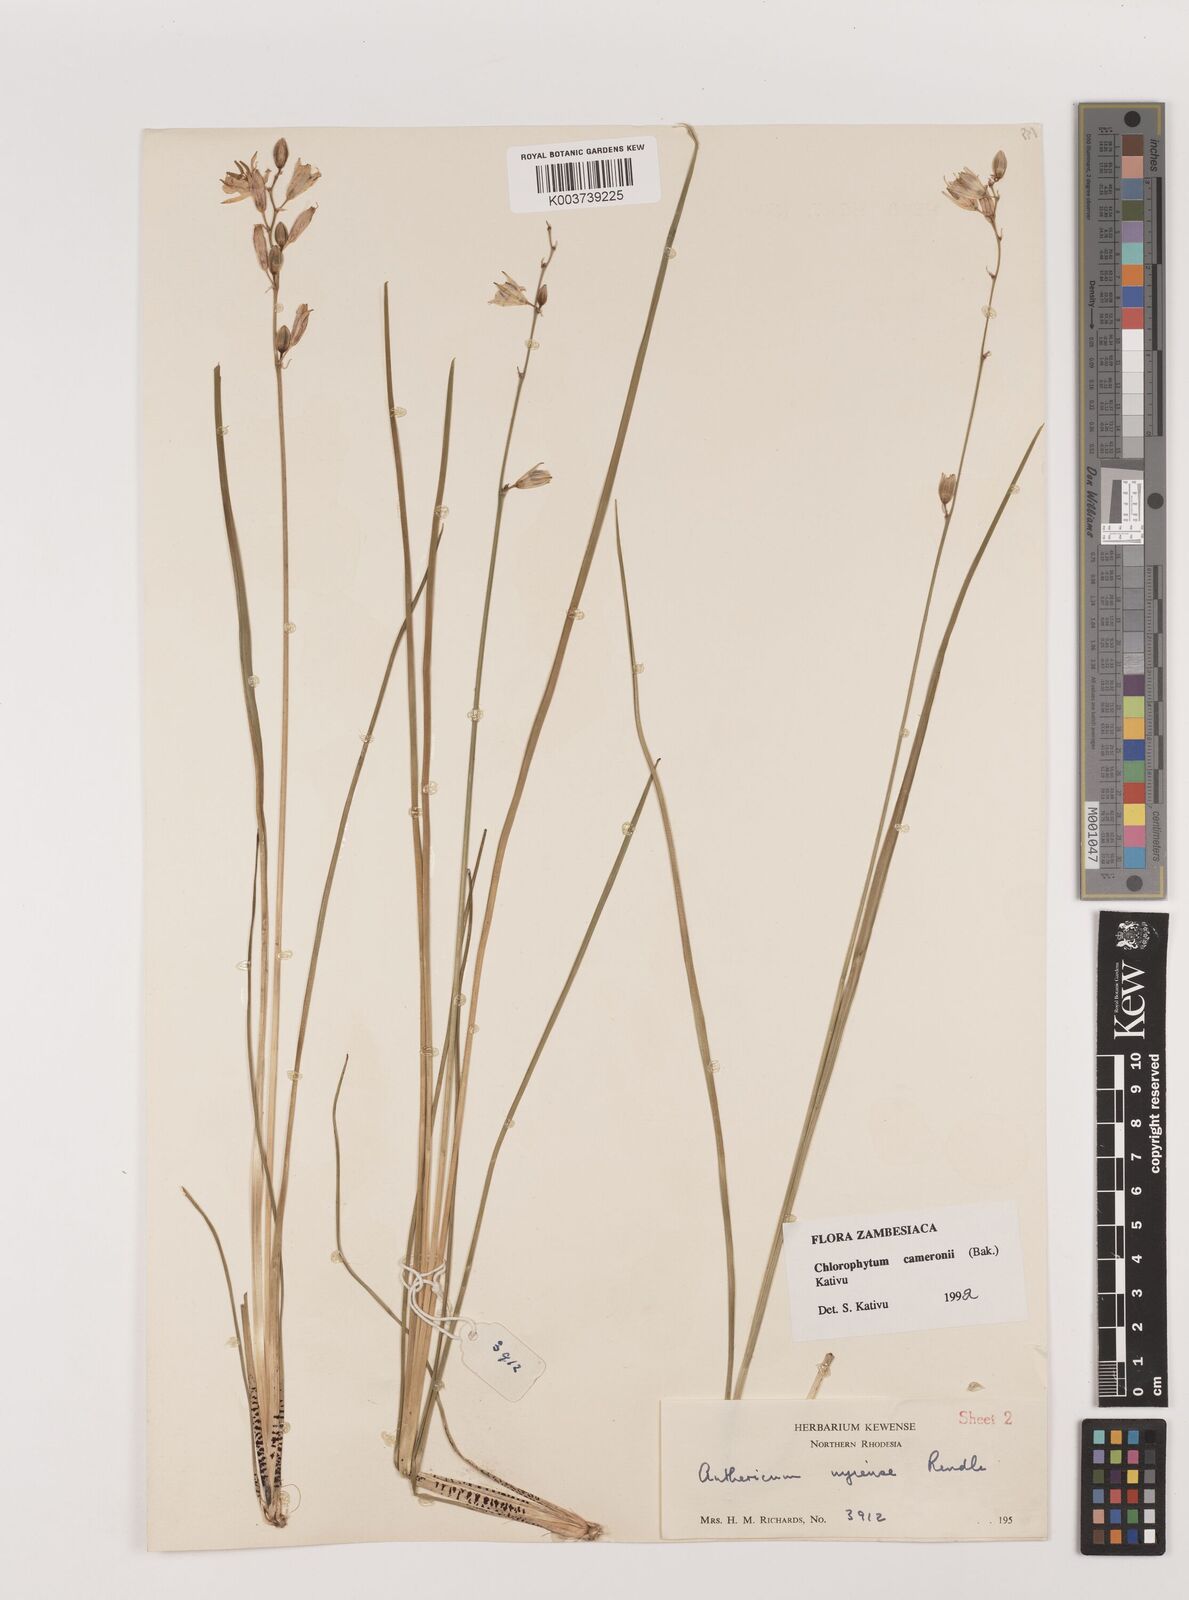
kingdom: Plantae
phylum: Tracheophyta
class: Liliopsida
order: Asparagales
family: Asparagaceae
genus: Chlorophytum
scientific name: Chlorophytum cameronii
